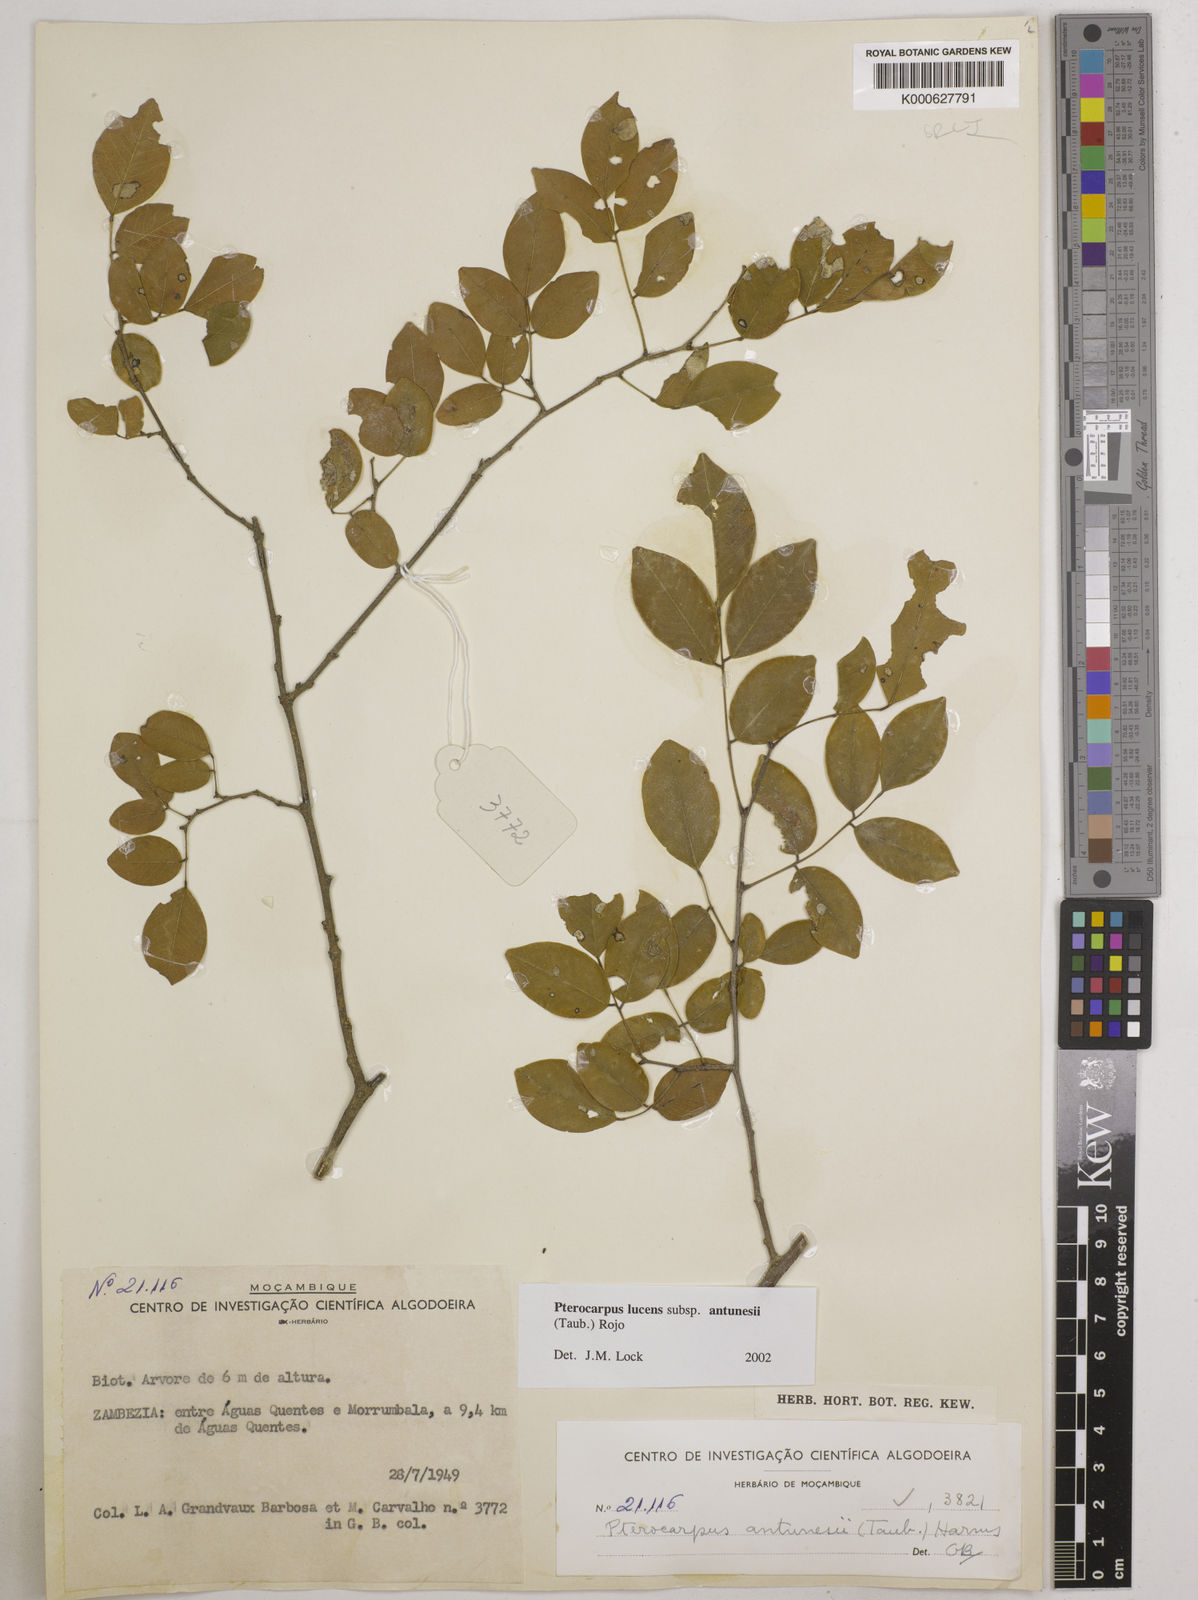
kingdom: Plantae
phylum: Tracheophyta
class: Magnoliopsida
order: Fabales
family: Fabaceae
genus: Pterocarpus
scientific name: Pterocarpus lucens
